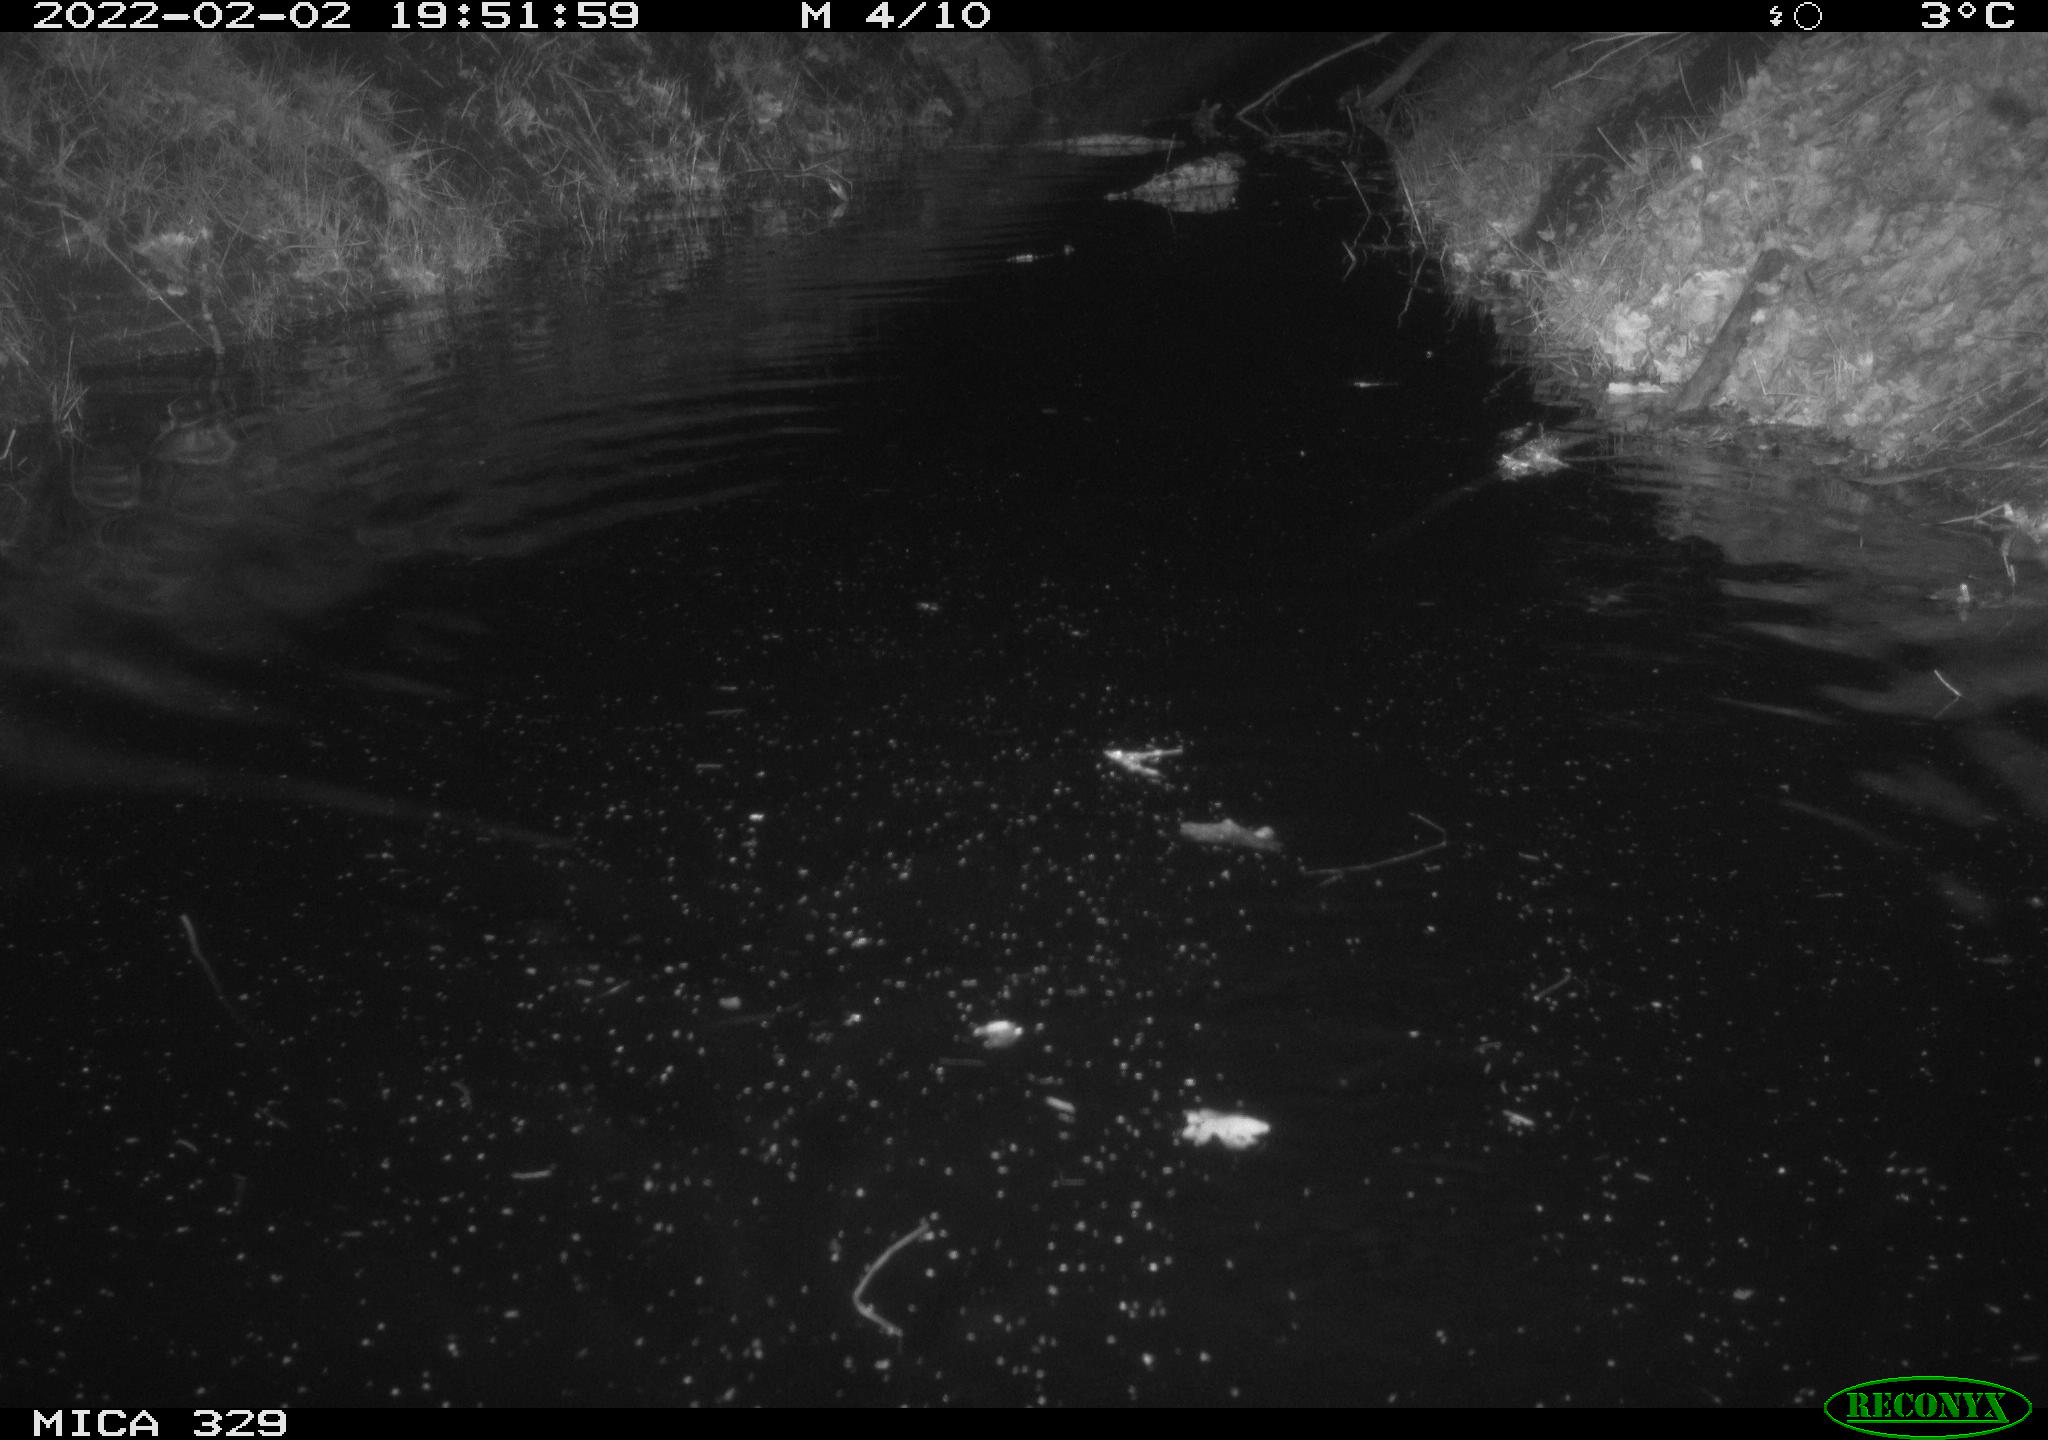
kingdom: Animalia
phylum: Chordata
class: Mammalia
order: Rodentia
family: Cricetidae
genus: Ondatra
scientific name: Ondatra zibethicus
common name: Muskrat
